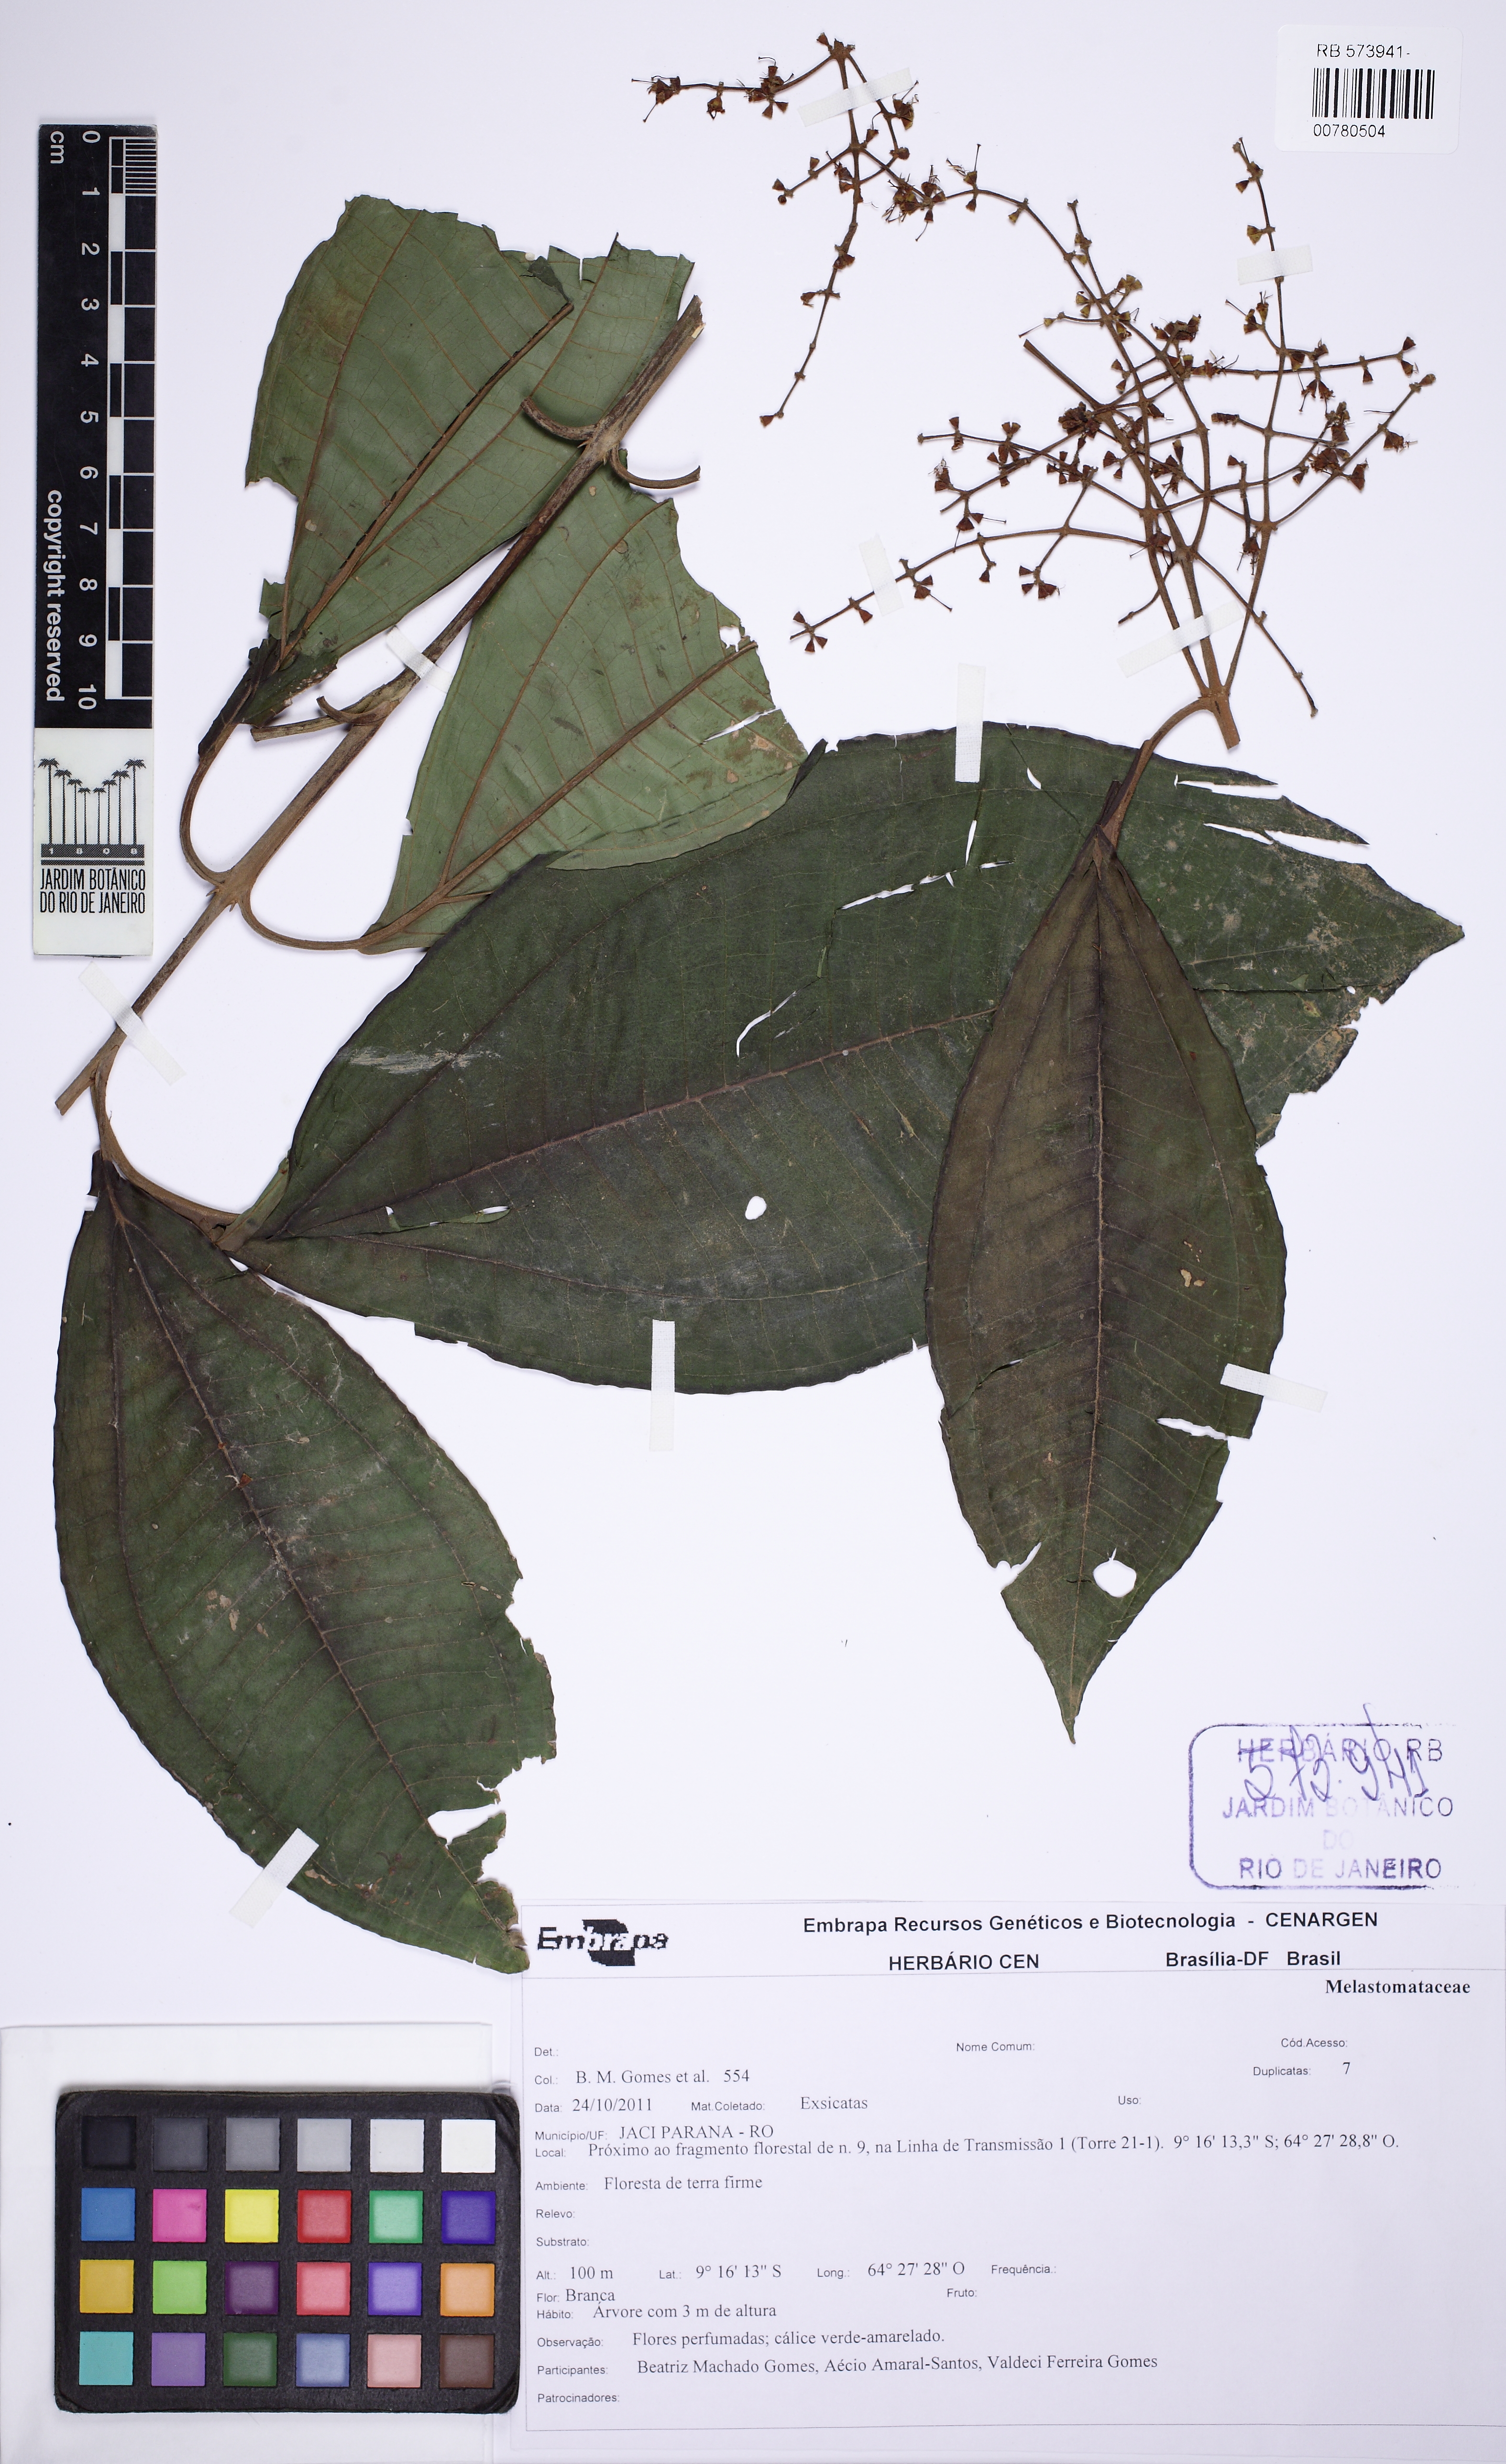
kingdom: Plantae
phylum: Tracheophyta
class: Magnoliopsida
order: Myrtales
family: Melastomataceae
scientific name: Melastomataceae
